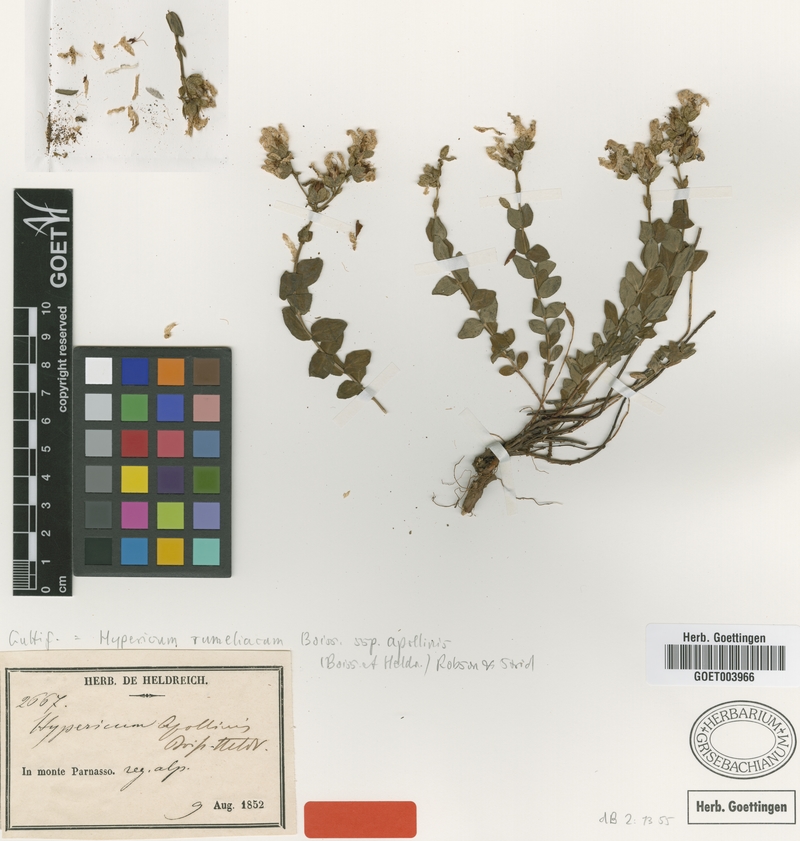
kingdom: Plantae
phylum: Tracheophyta
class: Magnoliopsida
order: Malpighiales
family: Hypericaceae
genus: Hypericum
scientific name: Hypericum rumeliacum
